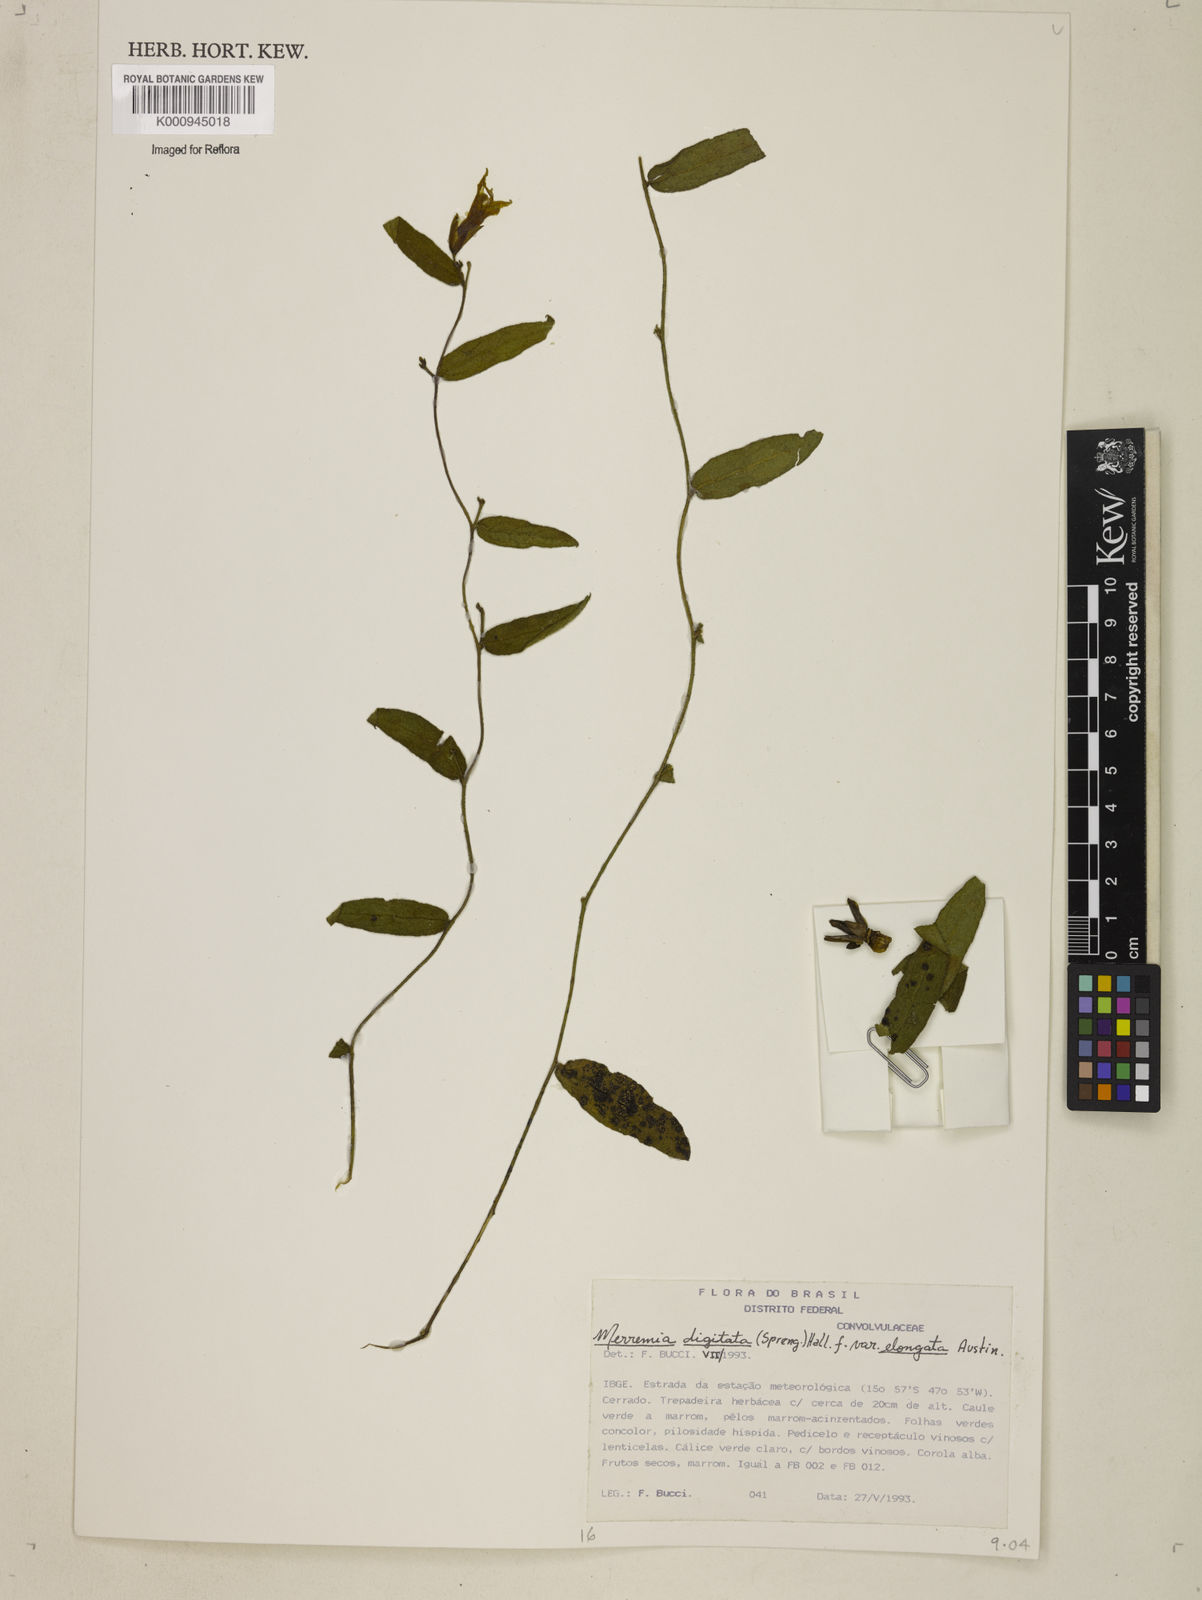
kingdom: Plantae
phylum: Tracheophyta
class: Magnoliopsida
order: Solanales
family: Convolvulaceae
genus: Distimake
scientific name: Distimake digitatus
